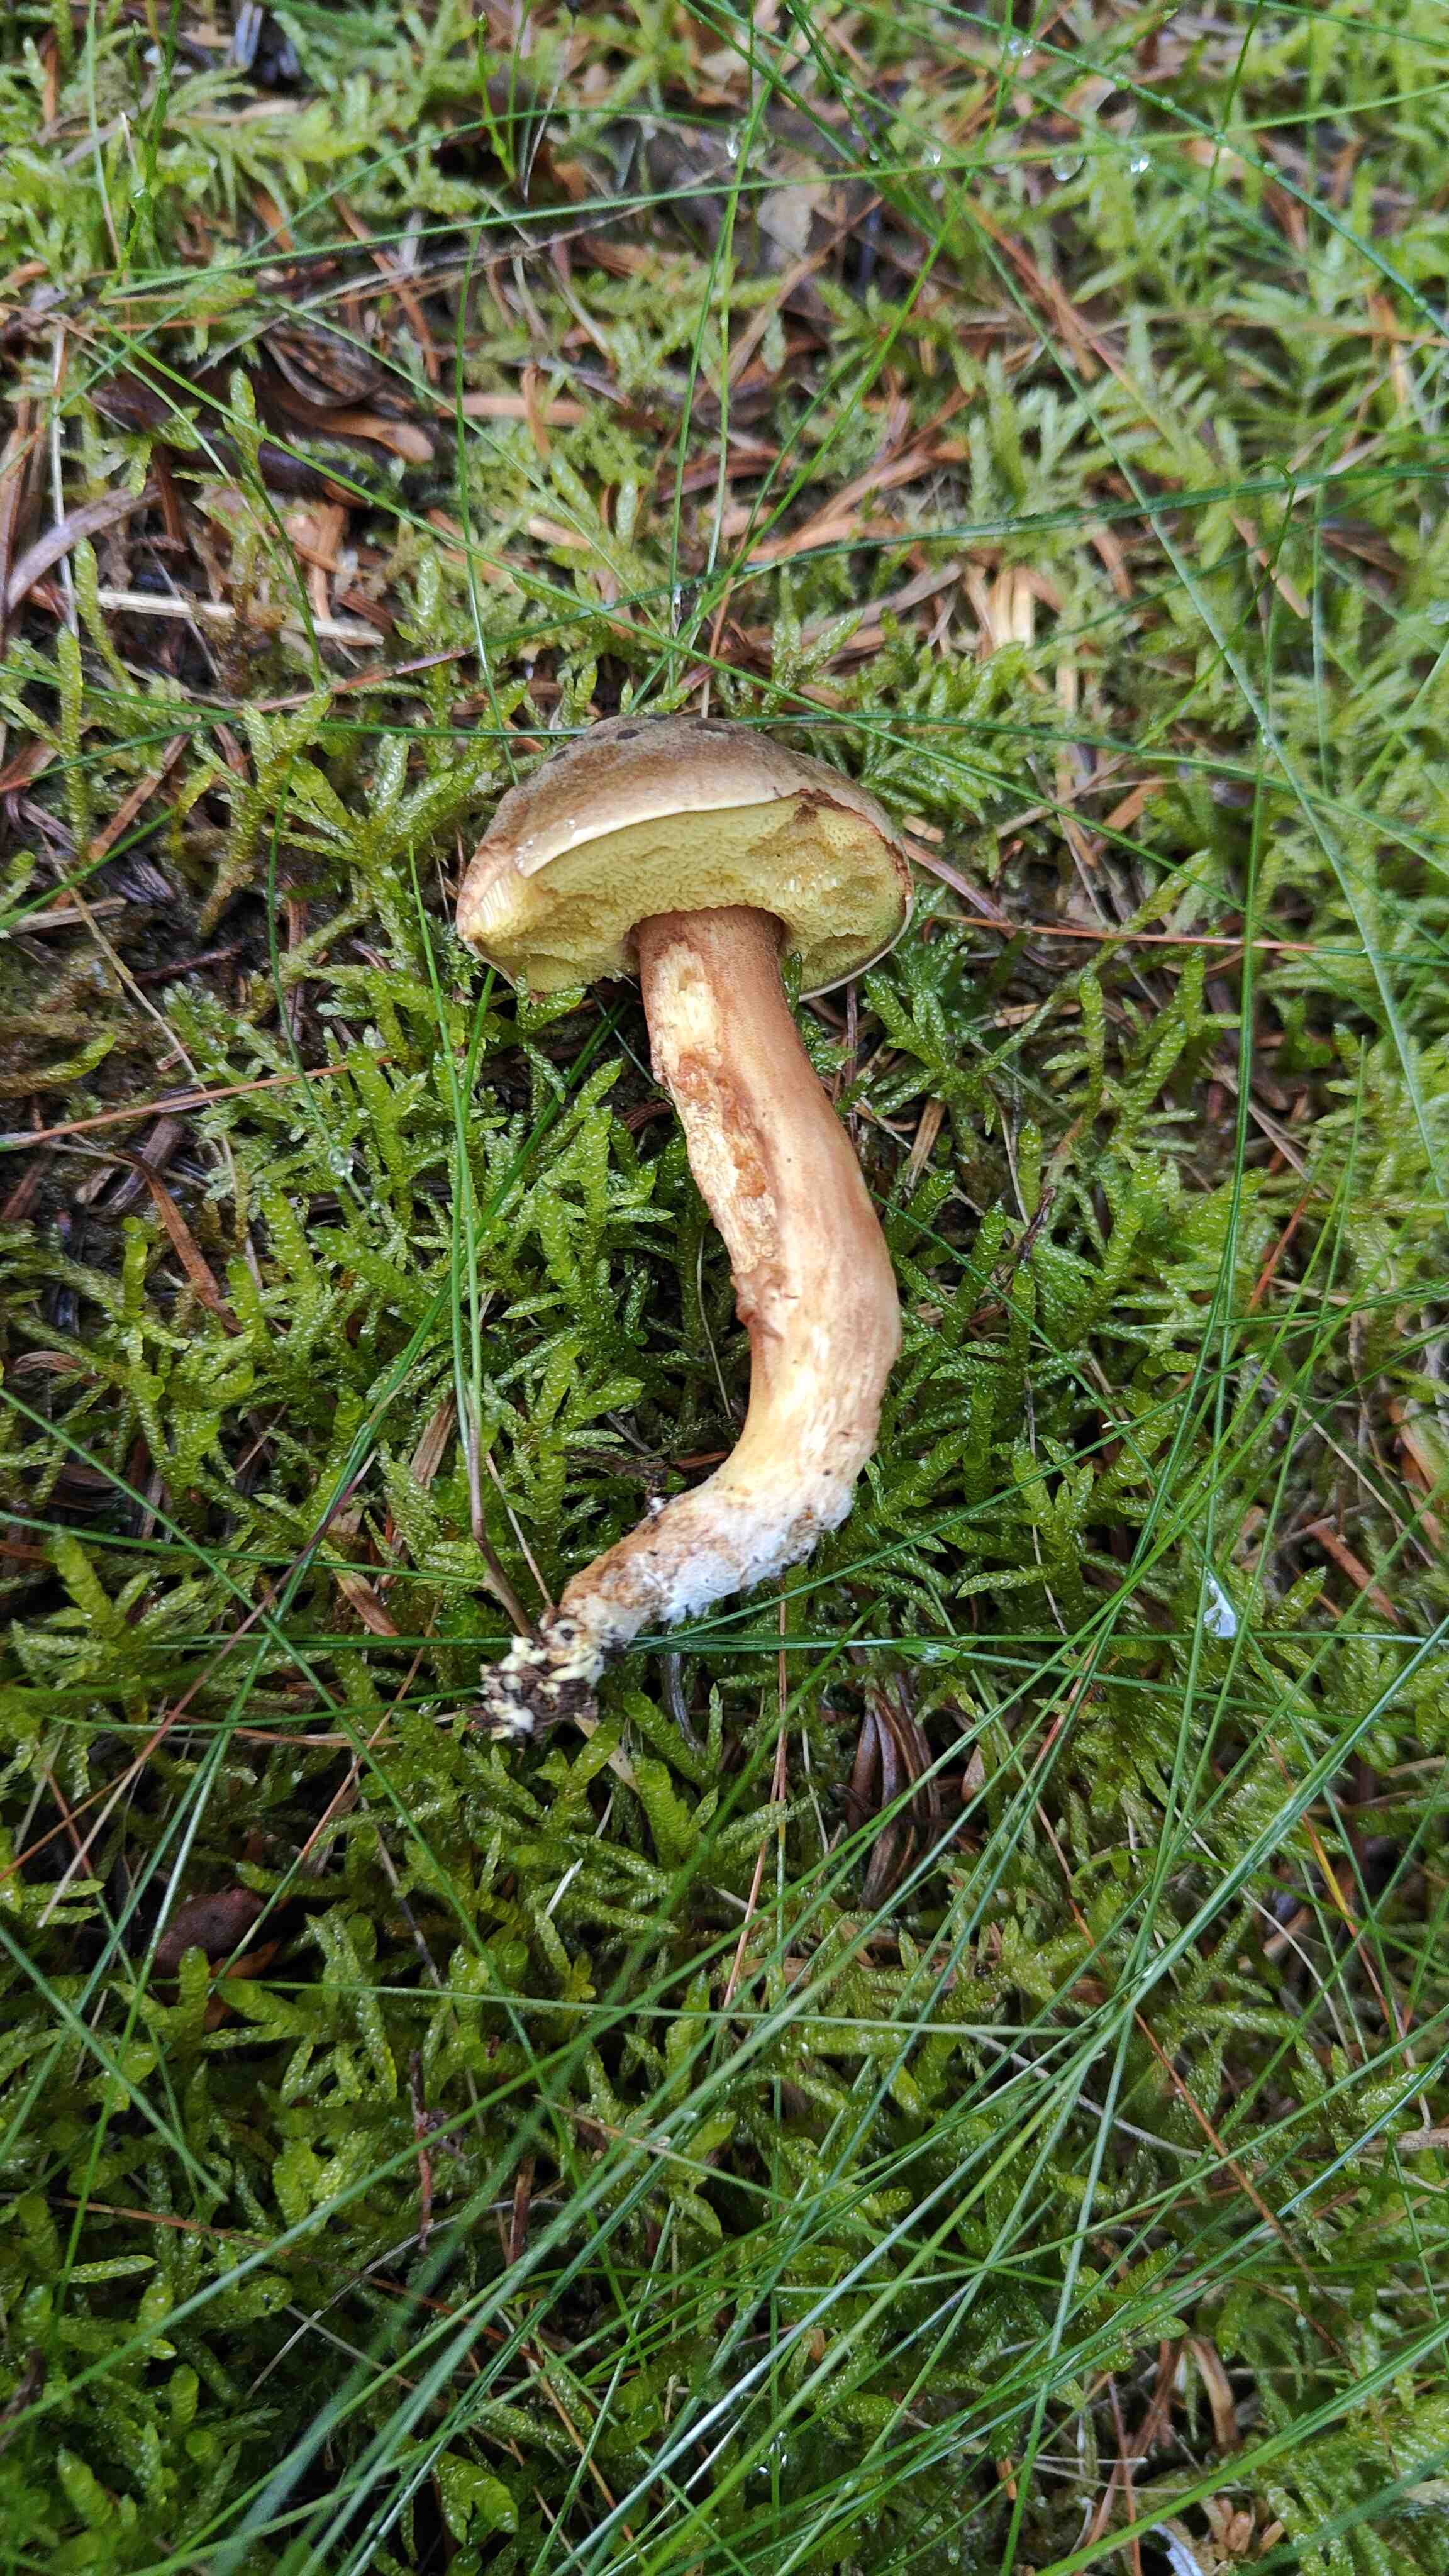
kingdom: Fungi
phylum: Basidiomycota
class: Agaricomycetes
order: Boletales
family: Boletaceae
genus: Xerocomus
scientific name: Xerocomus ferrugineus
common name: vaskeskinds-rørhat
